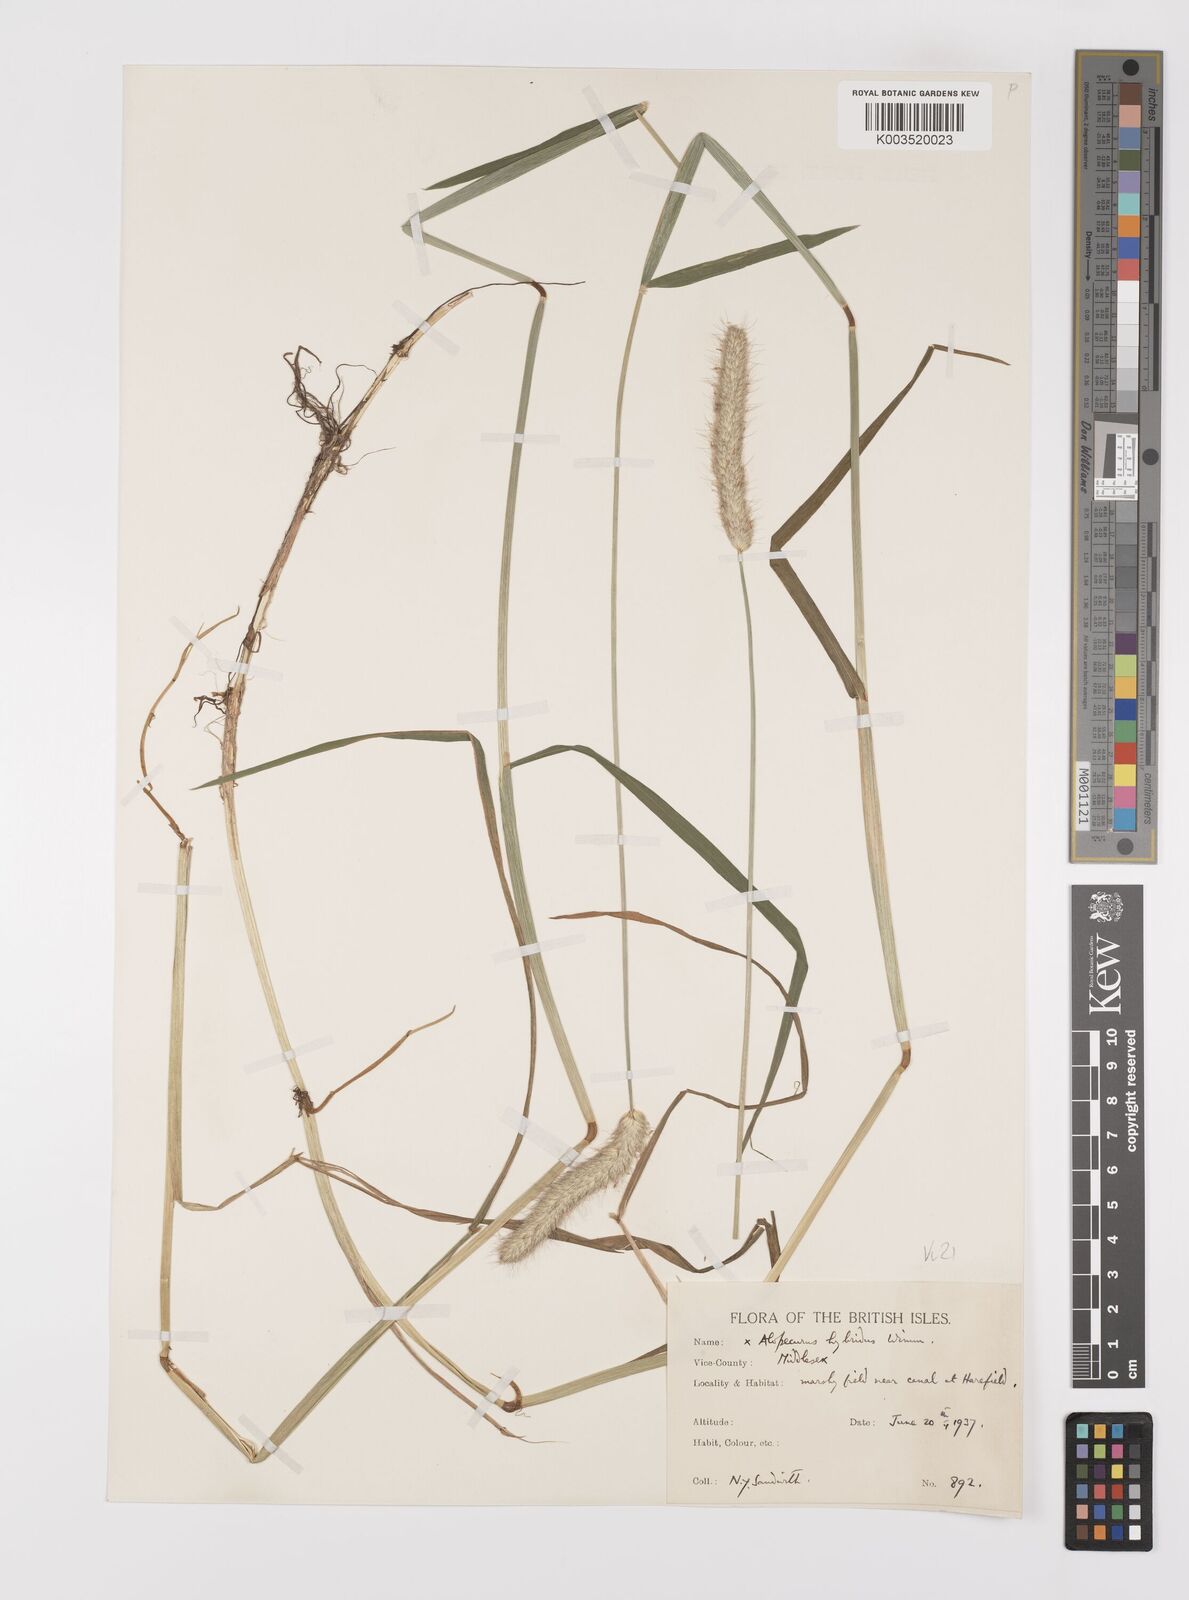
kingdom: Plantae
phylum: Tracheophyta
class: Liliopsida
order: Poales
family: Poaceae
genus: Alopecurus
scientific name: Alopecurus brachystylus
